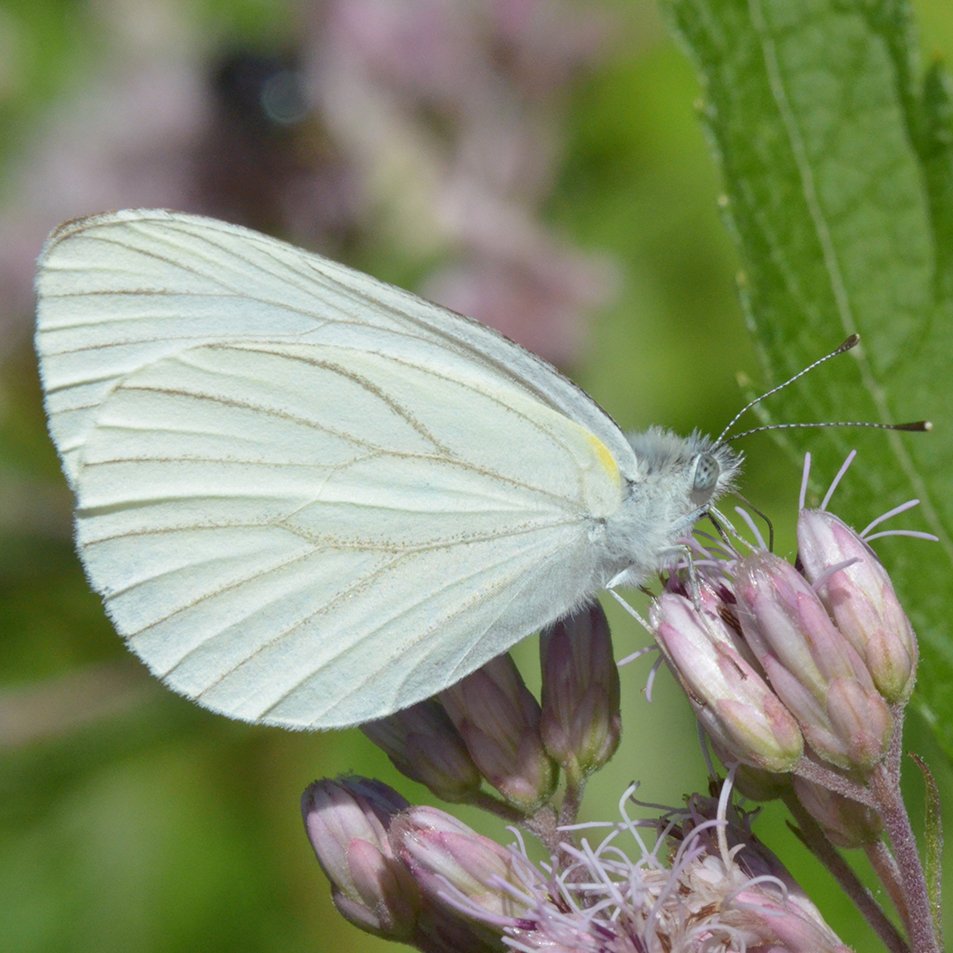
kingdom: Animalia
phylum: Arthropoda
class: Insecta
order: Lepidoptera
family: Pieridae
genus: Pieris
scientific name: Pieris oleracea
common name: Mustard White
